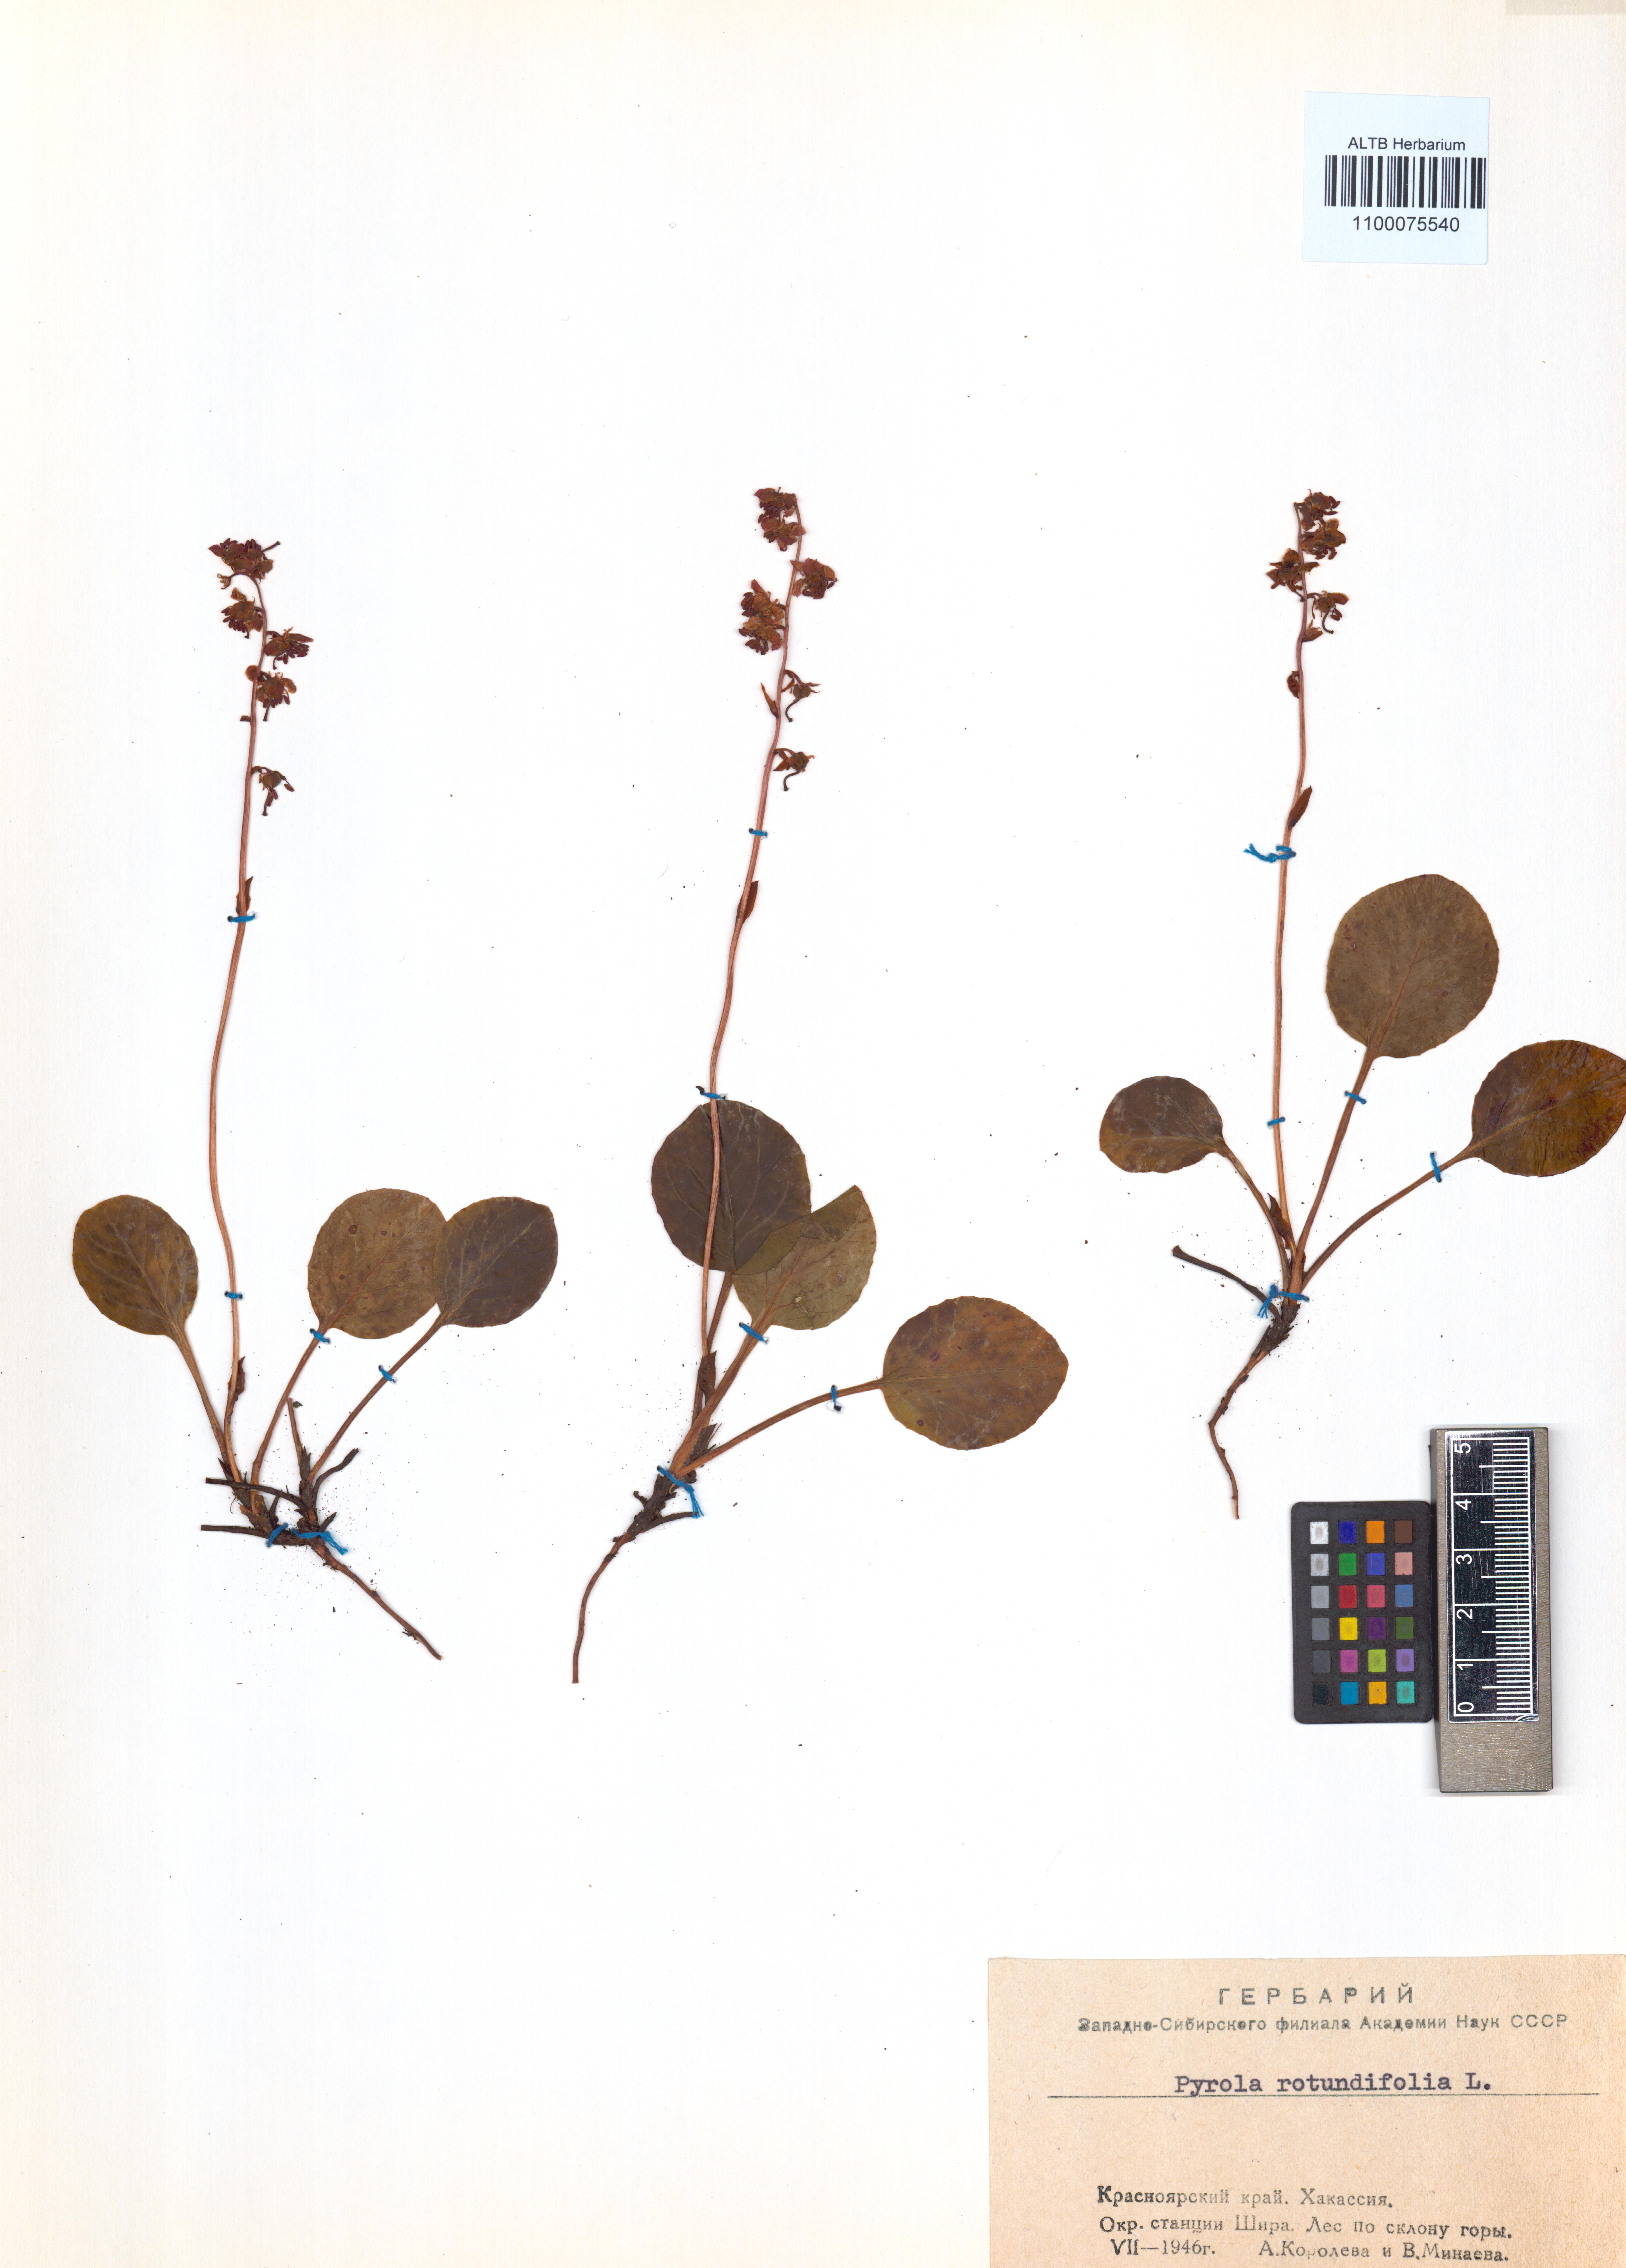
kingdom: Plantae
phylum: Tracheophyta
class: Magnoliopsida
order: Ericales
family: Ericaceae
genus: Pyrola
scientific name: Pyrola rotundifolia
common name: Round-leaved wintergreen
